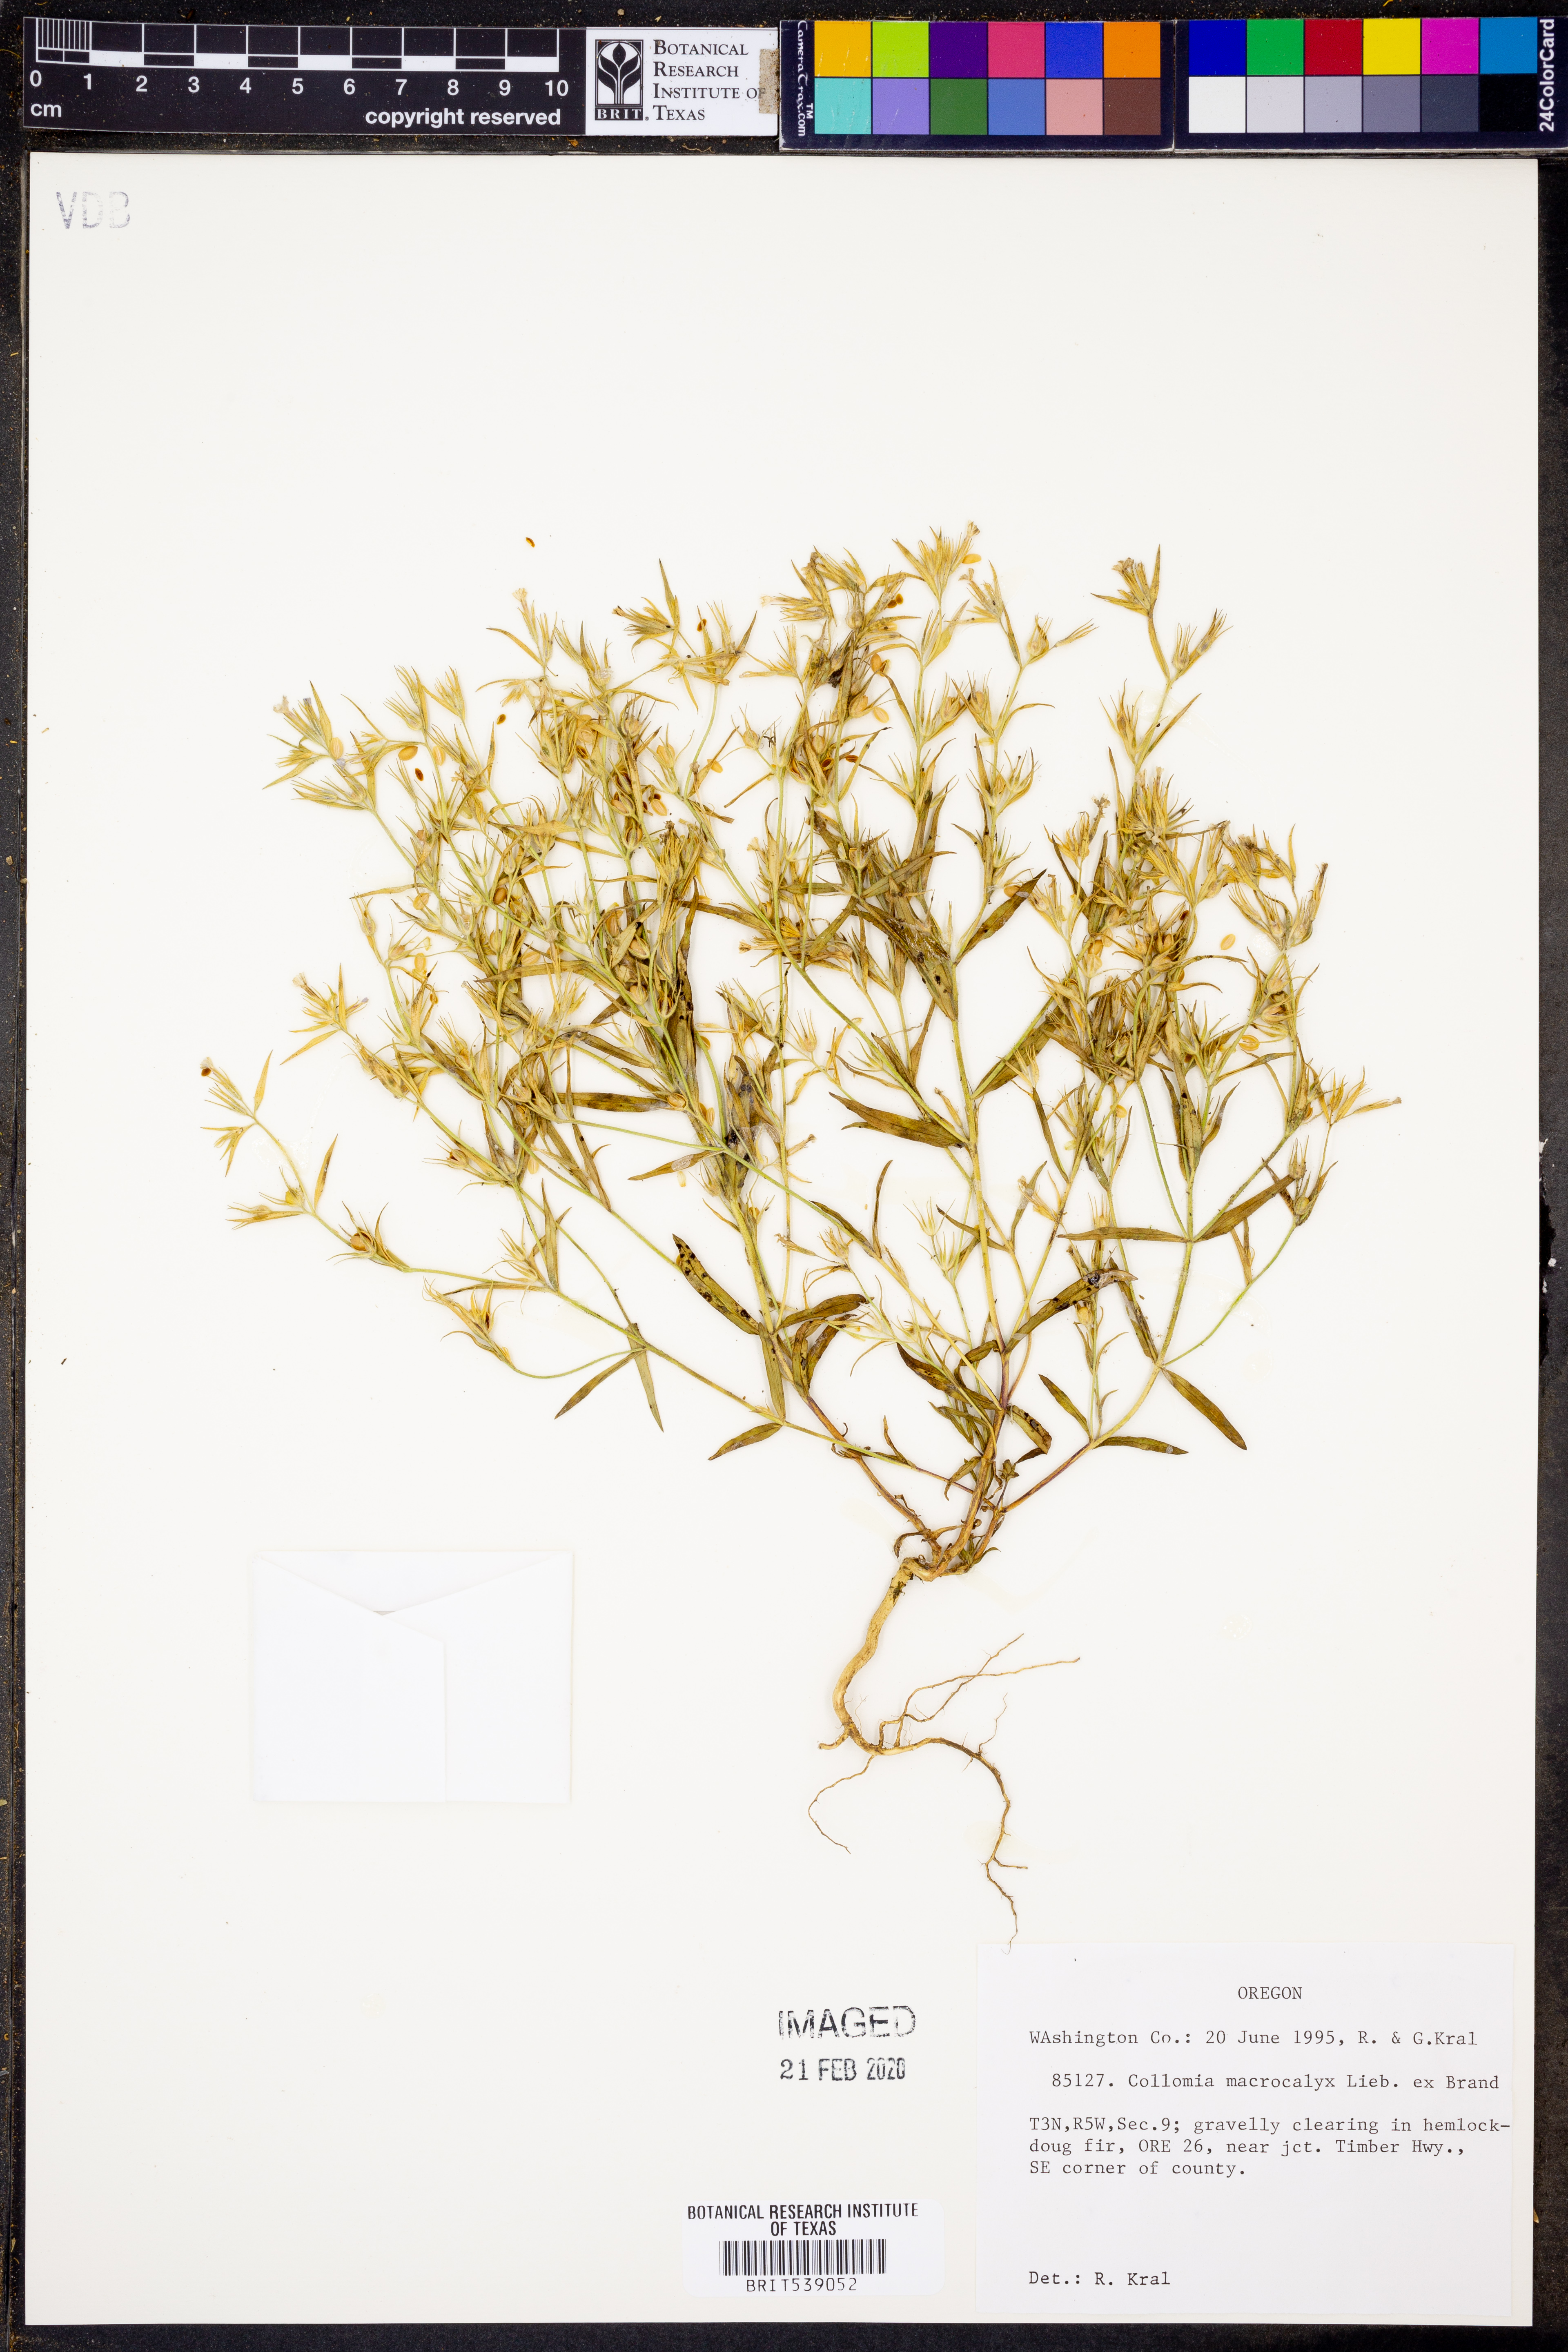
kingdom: Plantae
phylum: Tracheophyta
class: Magnoliopsida
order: Ericales
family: Polemoniaceae
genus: Collomia
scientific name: Collomia macrocalyx
